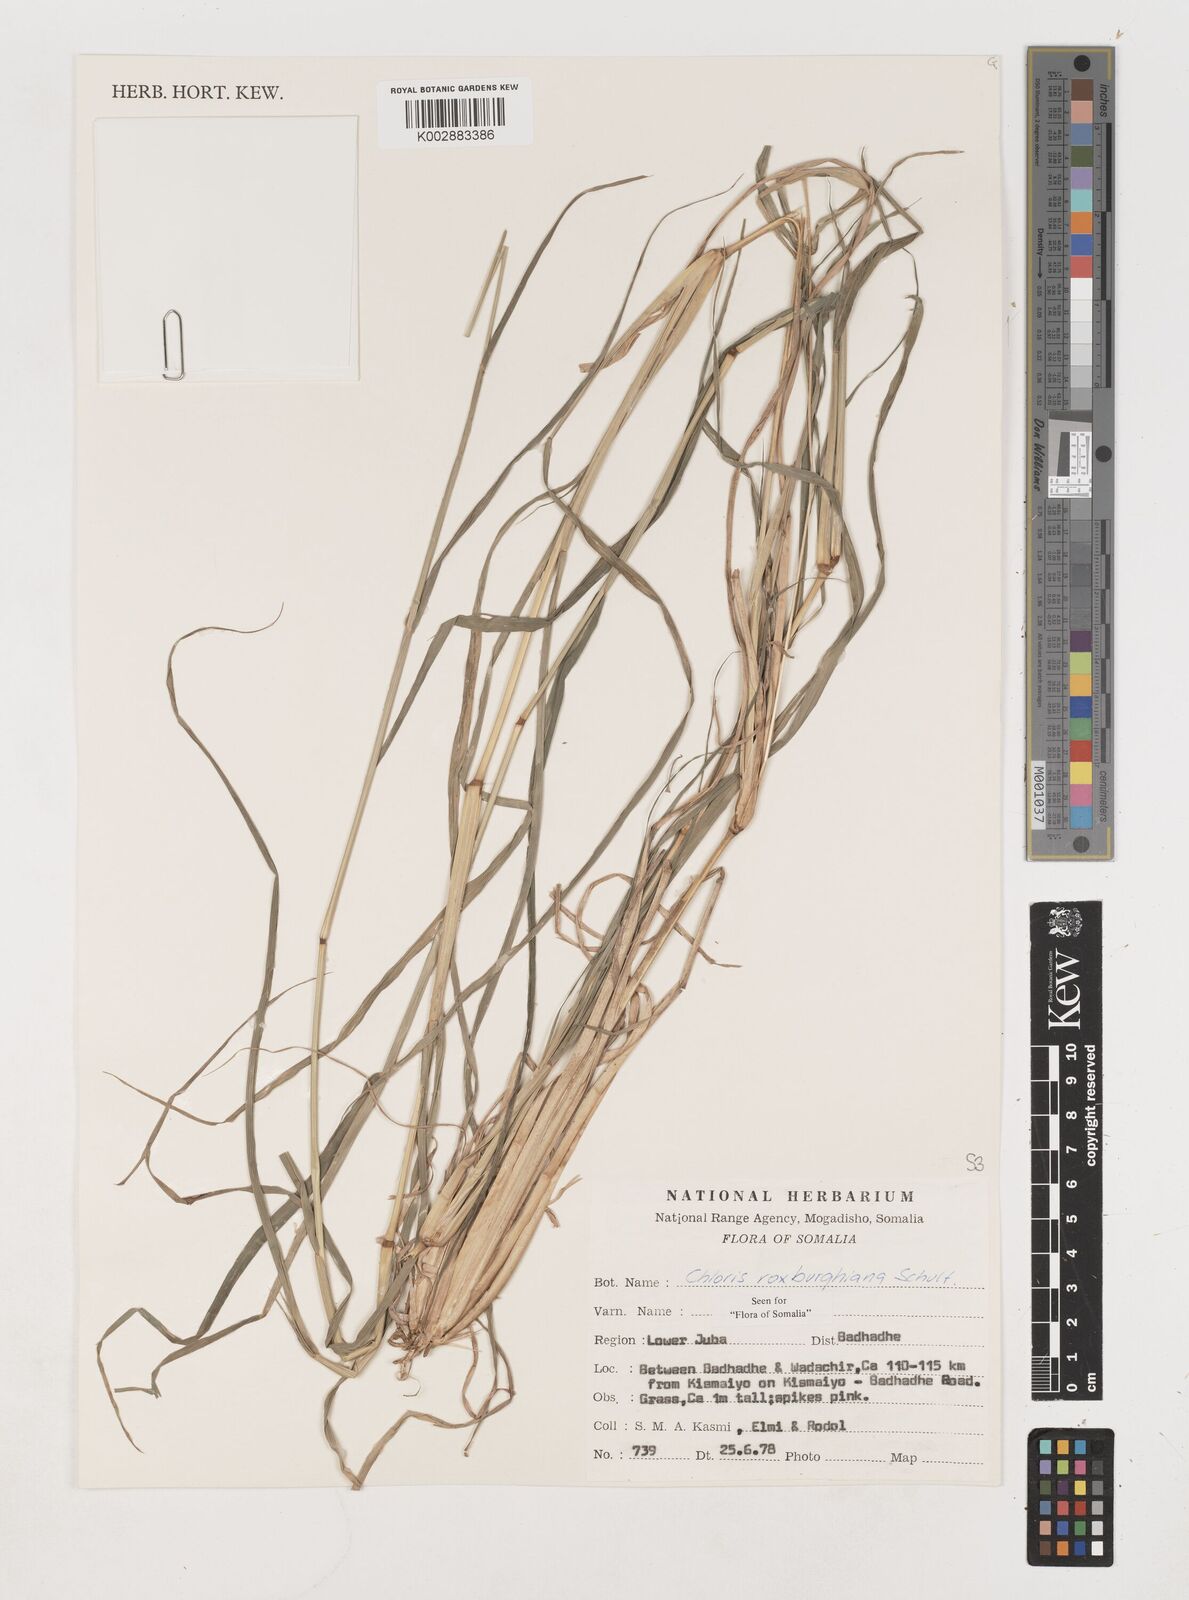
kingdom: Plantae
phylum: Tracheophyta
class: Liliopsida
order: Poales
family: Poaceae
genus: Tetrapogon
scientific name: Tetrapogon roxburghiana
